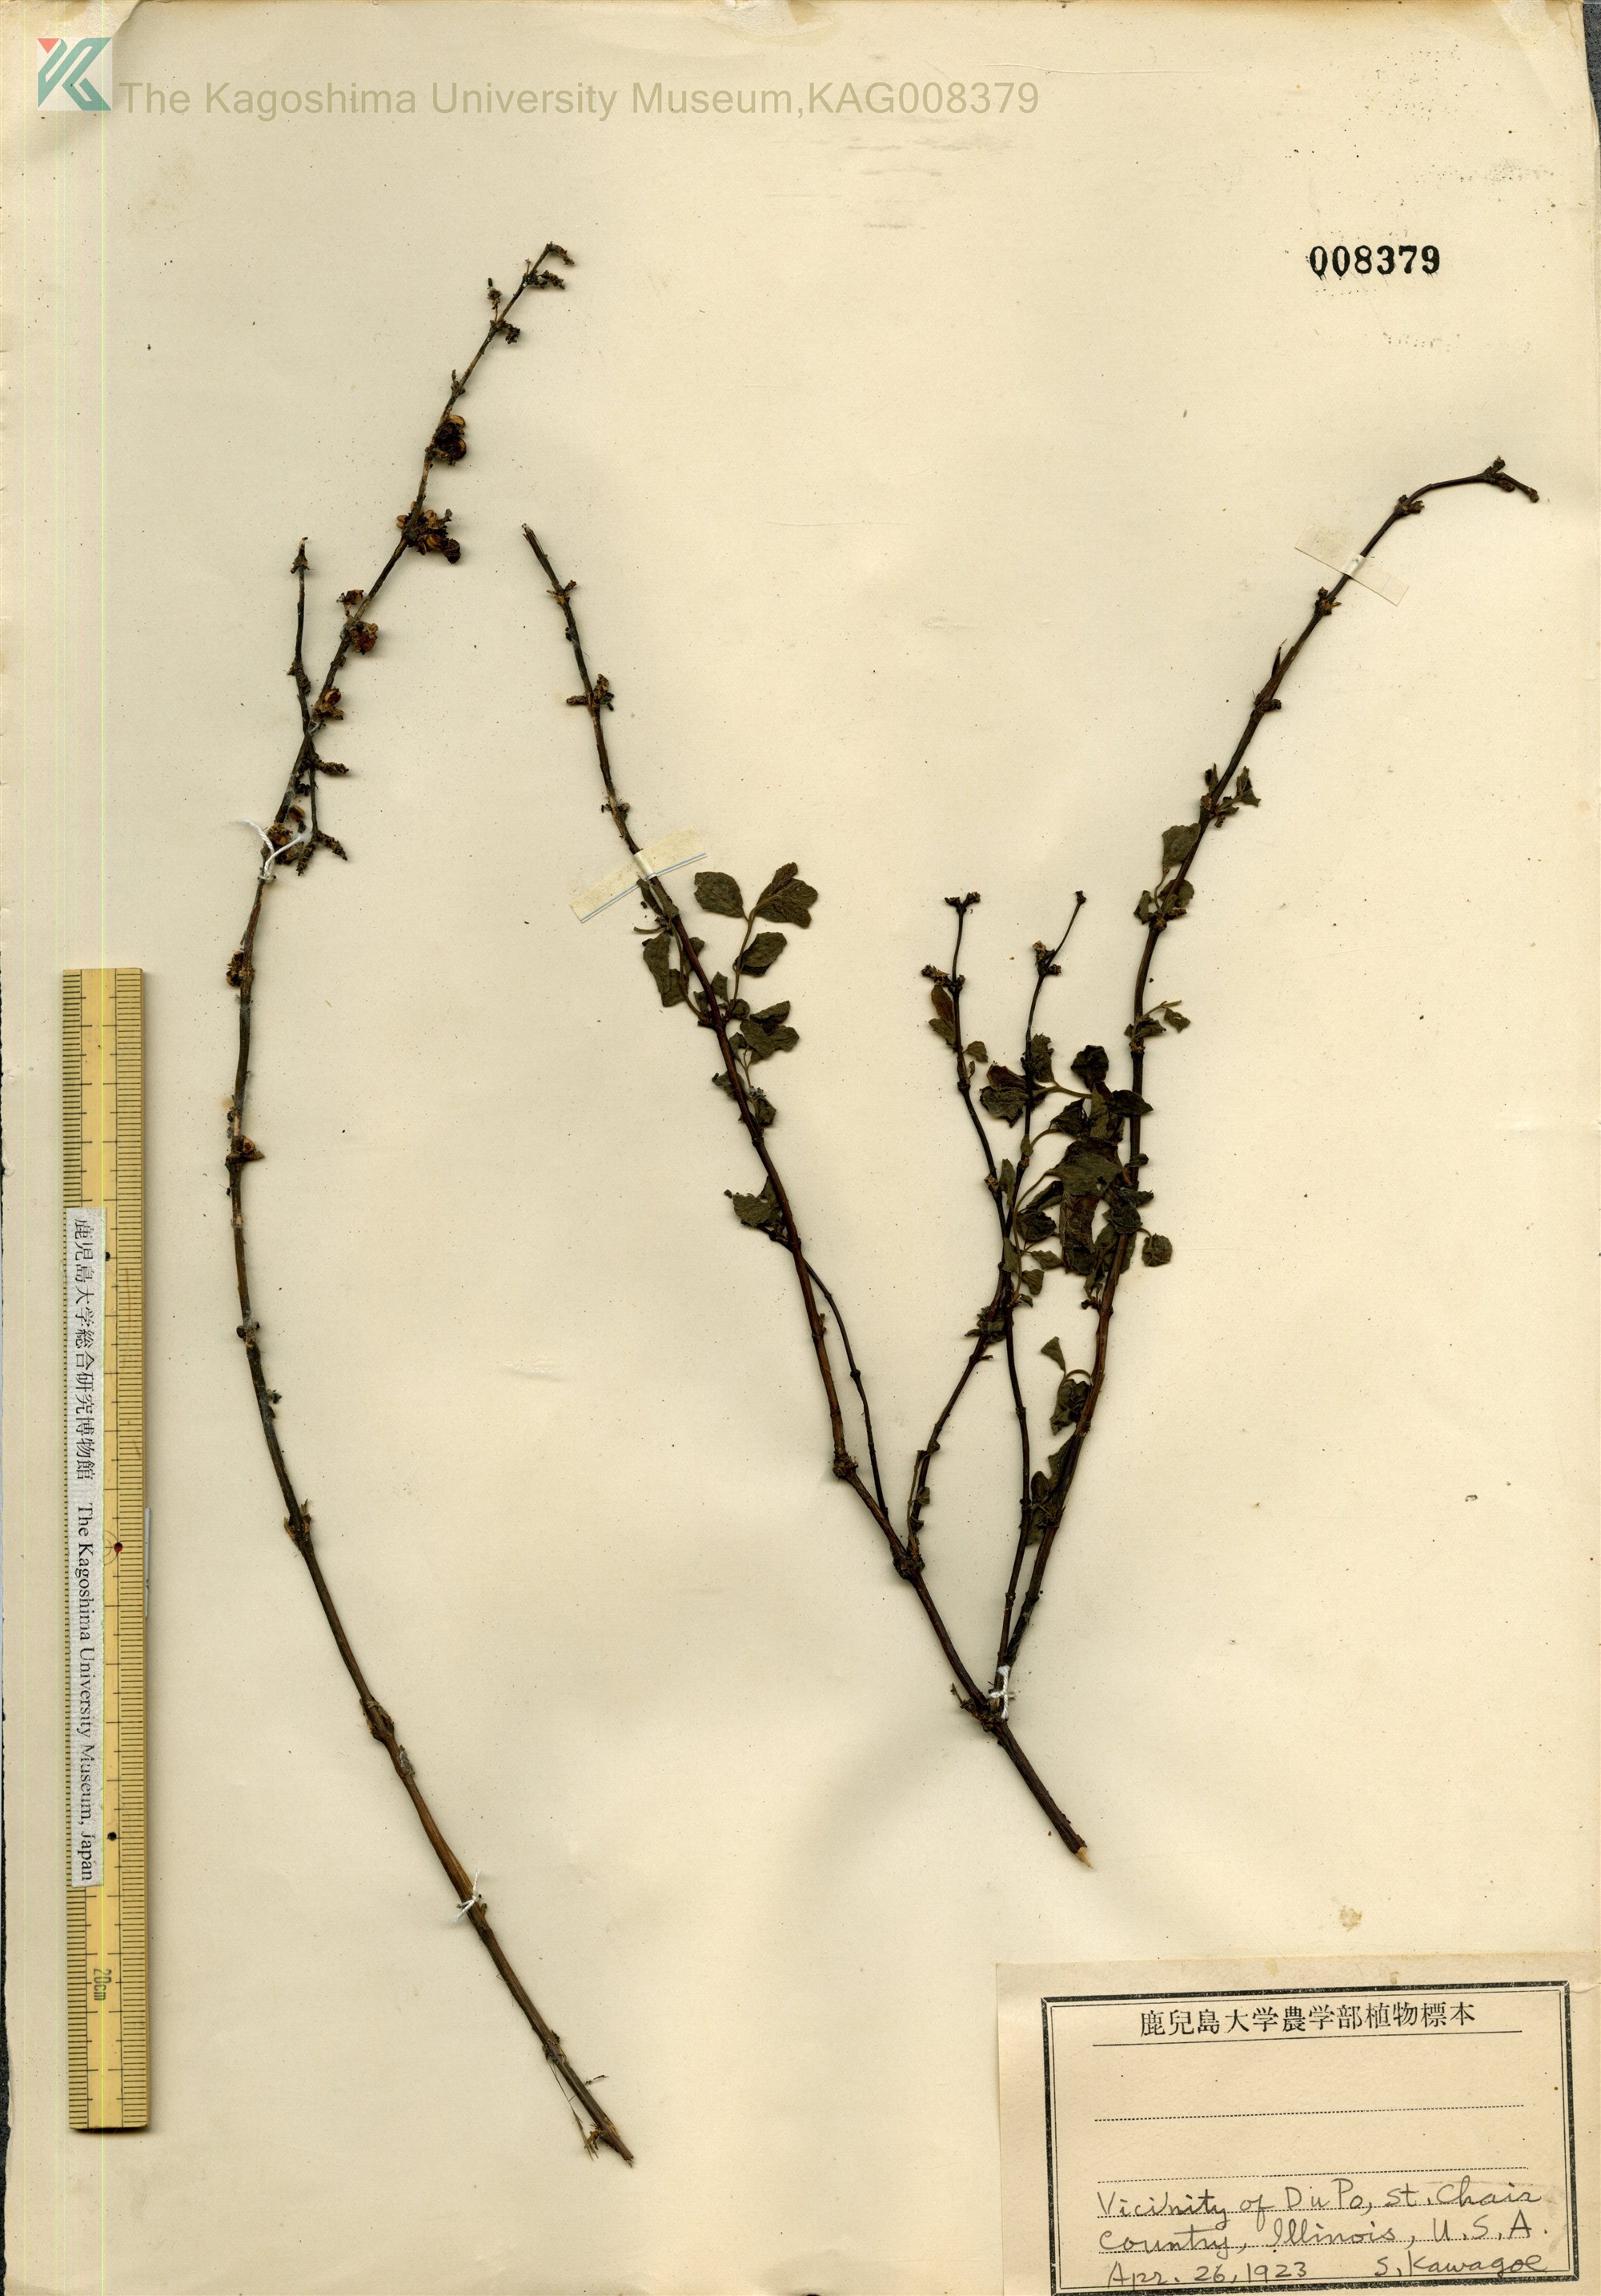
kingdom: Plantae
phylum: Tracheophyta
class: Magnoliopsida
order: Dipsacales
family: Caprifoliaceae
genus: Symphoricarpos
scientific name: Symphoricarpos chenaultii
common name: Hybrid coralberry
